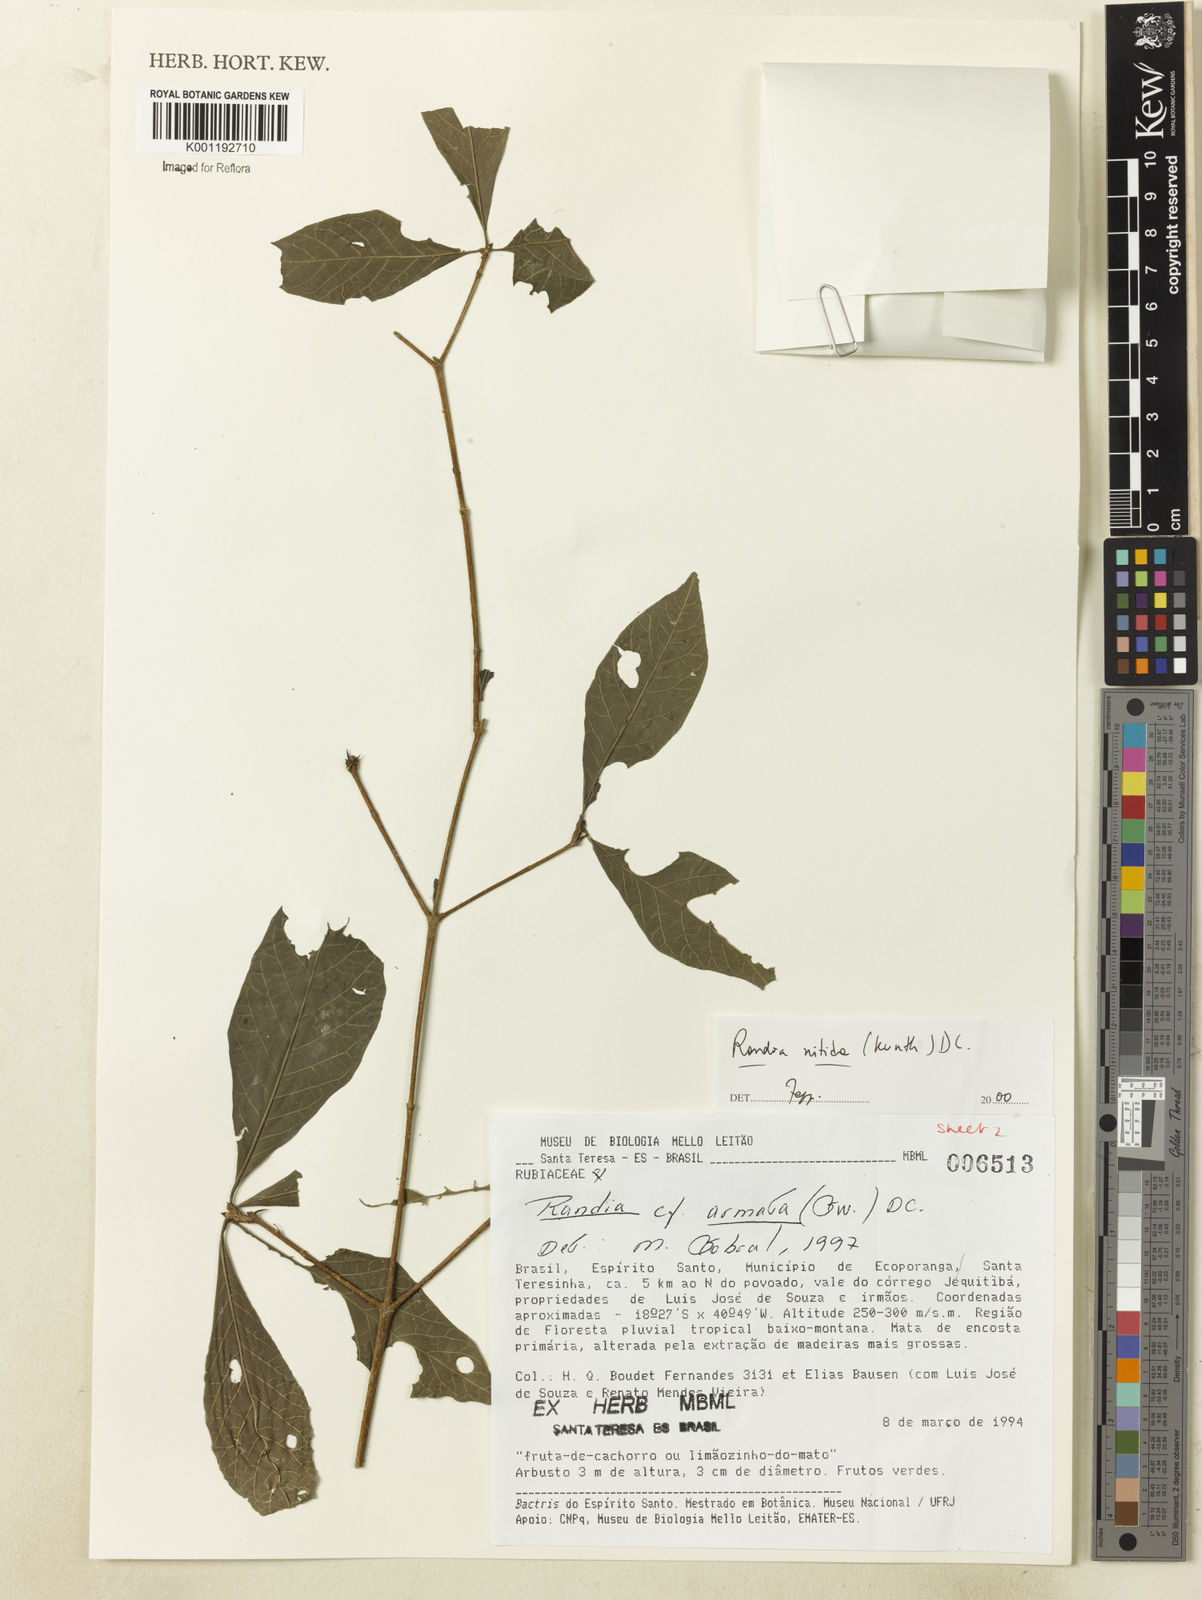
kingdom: Plantae
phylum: Tracheophyta
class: Magnoliopsida
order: Gentianales
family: Rubiaceae
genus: Randia
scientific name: Randia nitida
